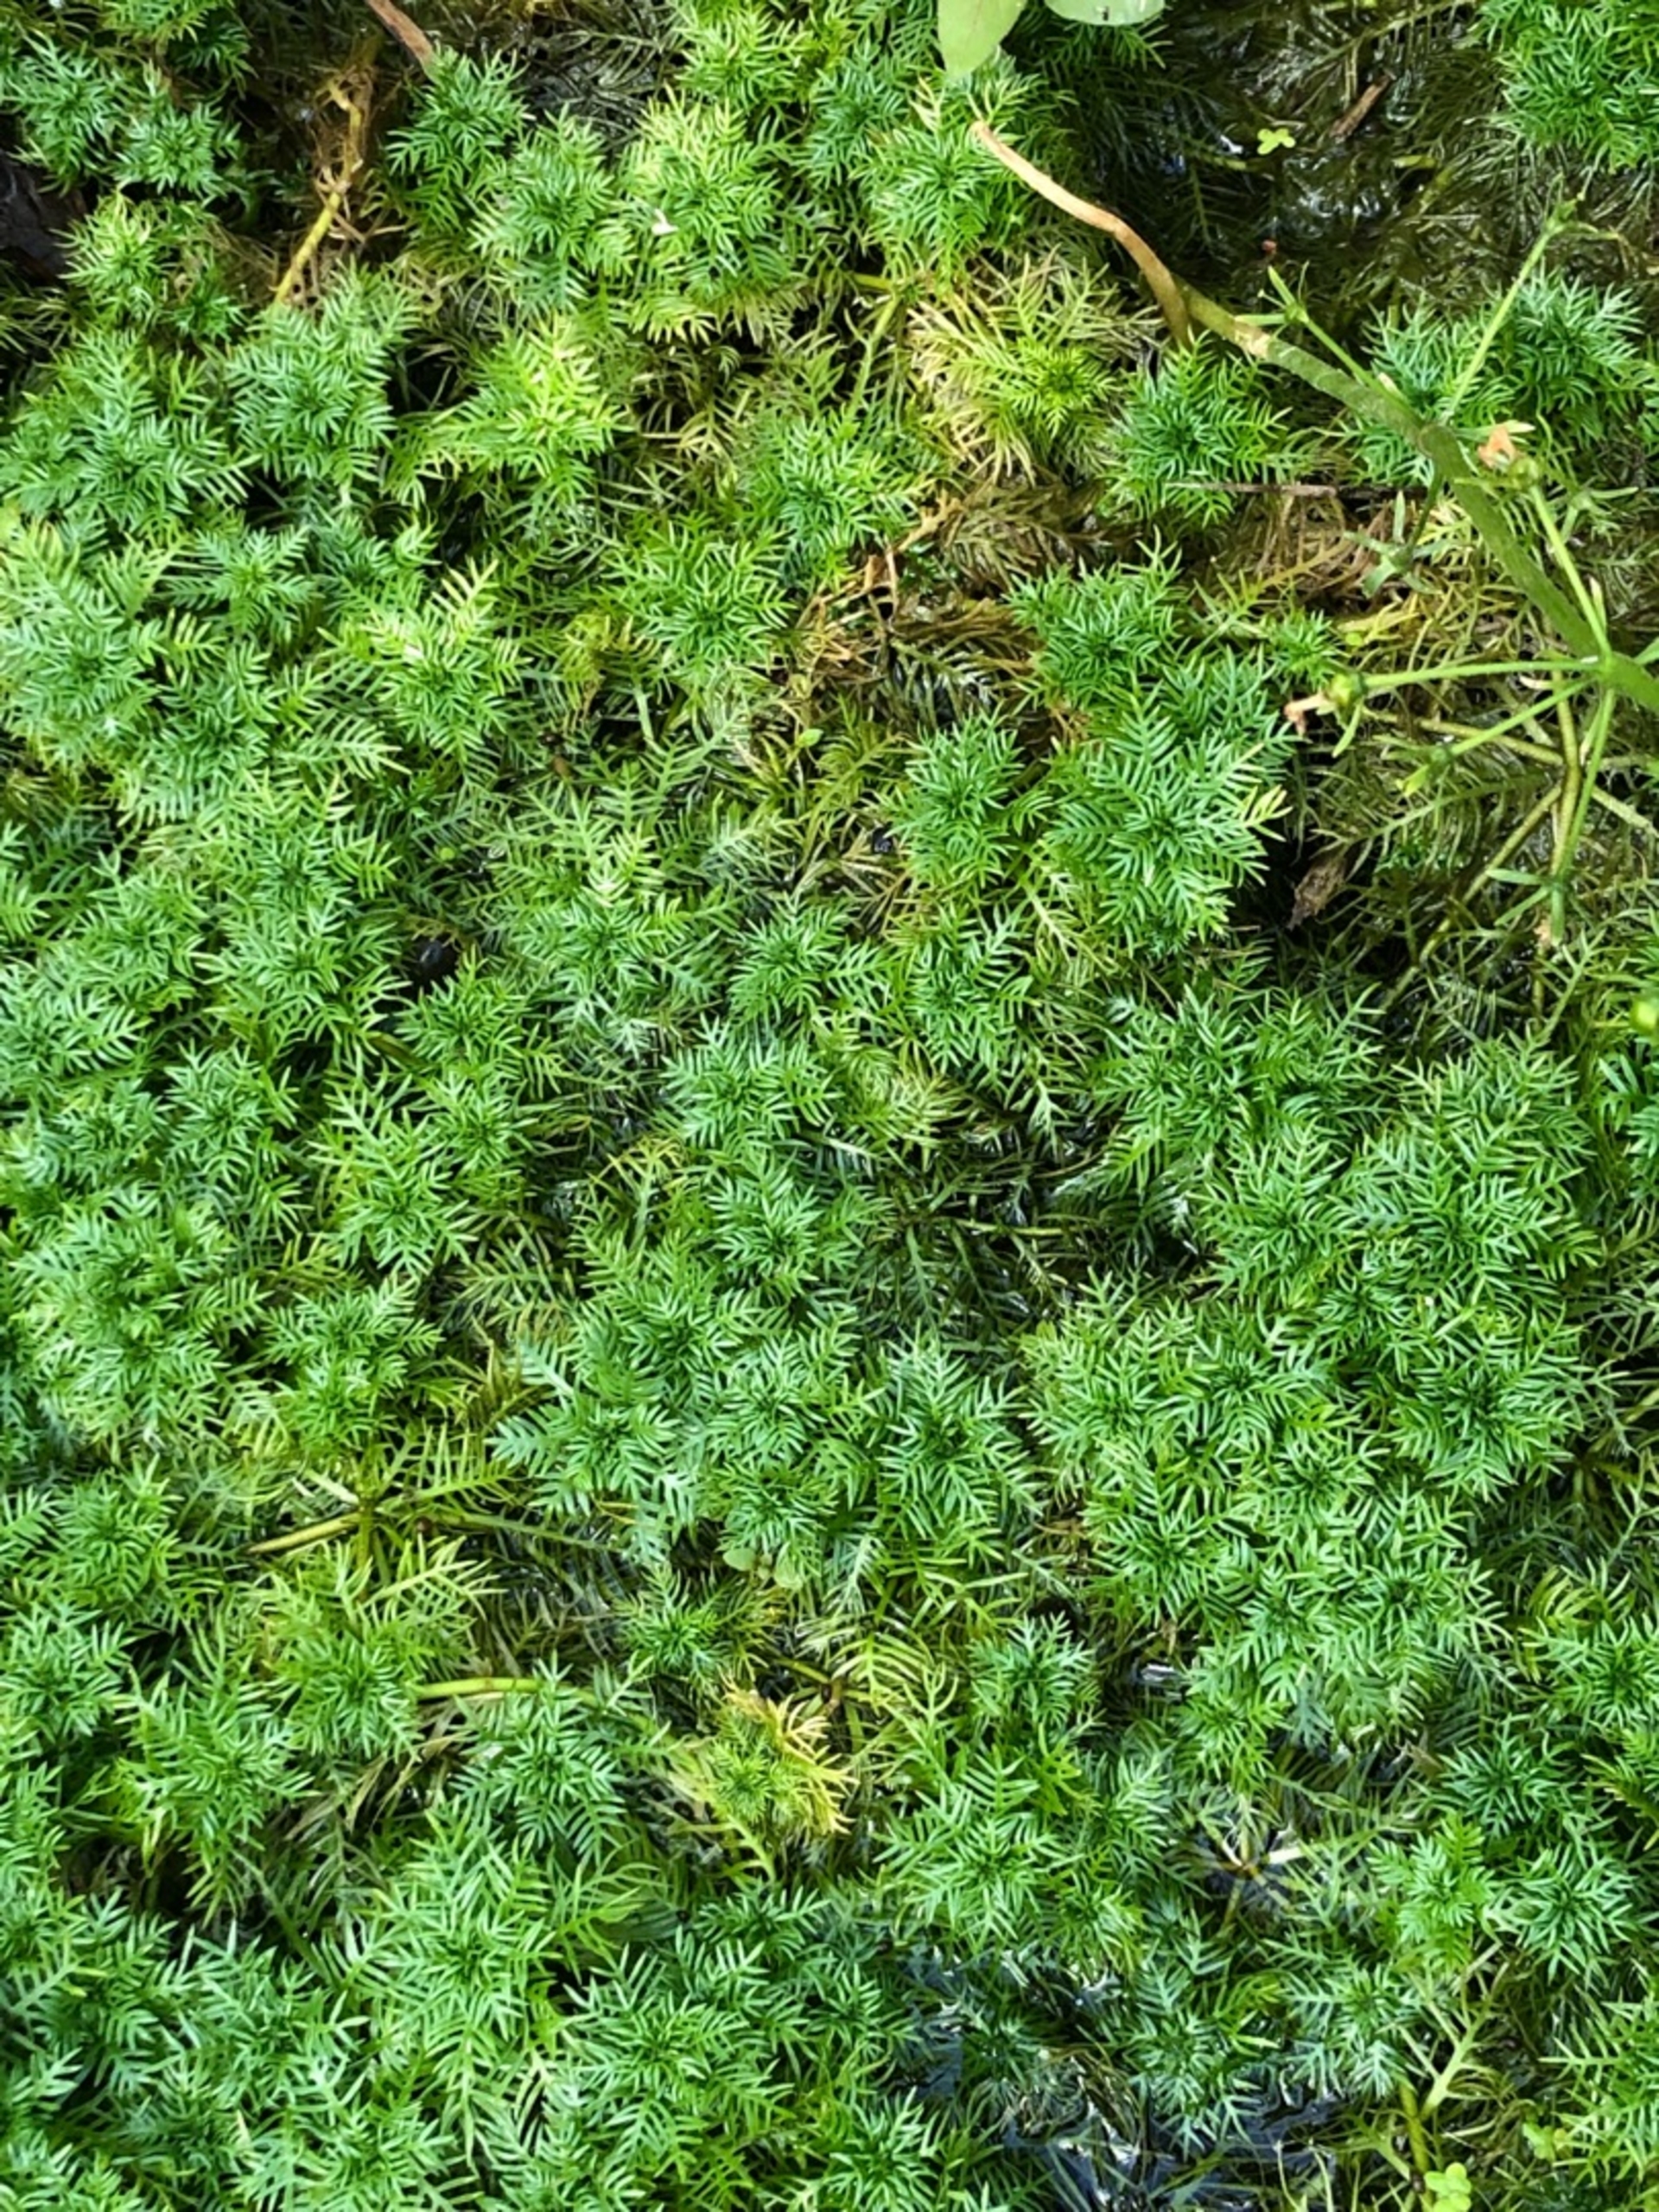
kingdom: Plantae
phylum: Tracheophyta
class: Magnoliopsida
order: Ericales
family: Primulaceae
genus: Hottonia
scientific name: Hottonia palustris
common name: Vandrøllike
